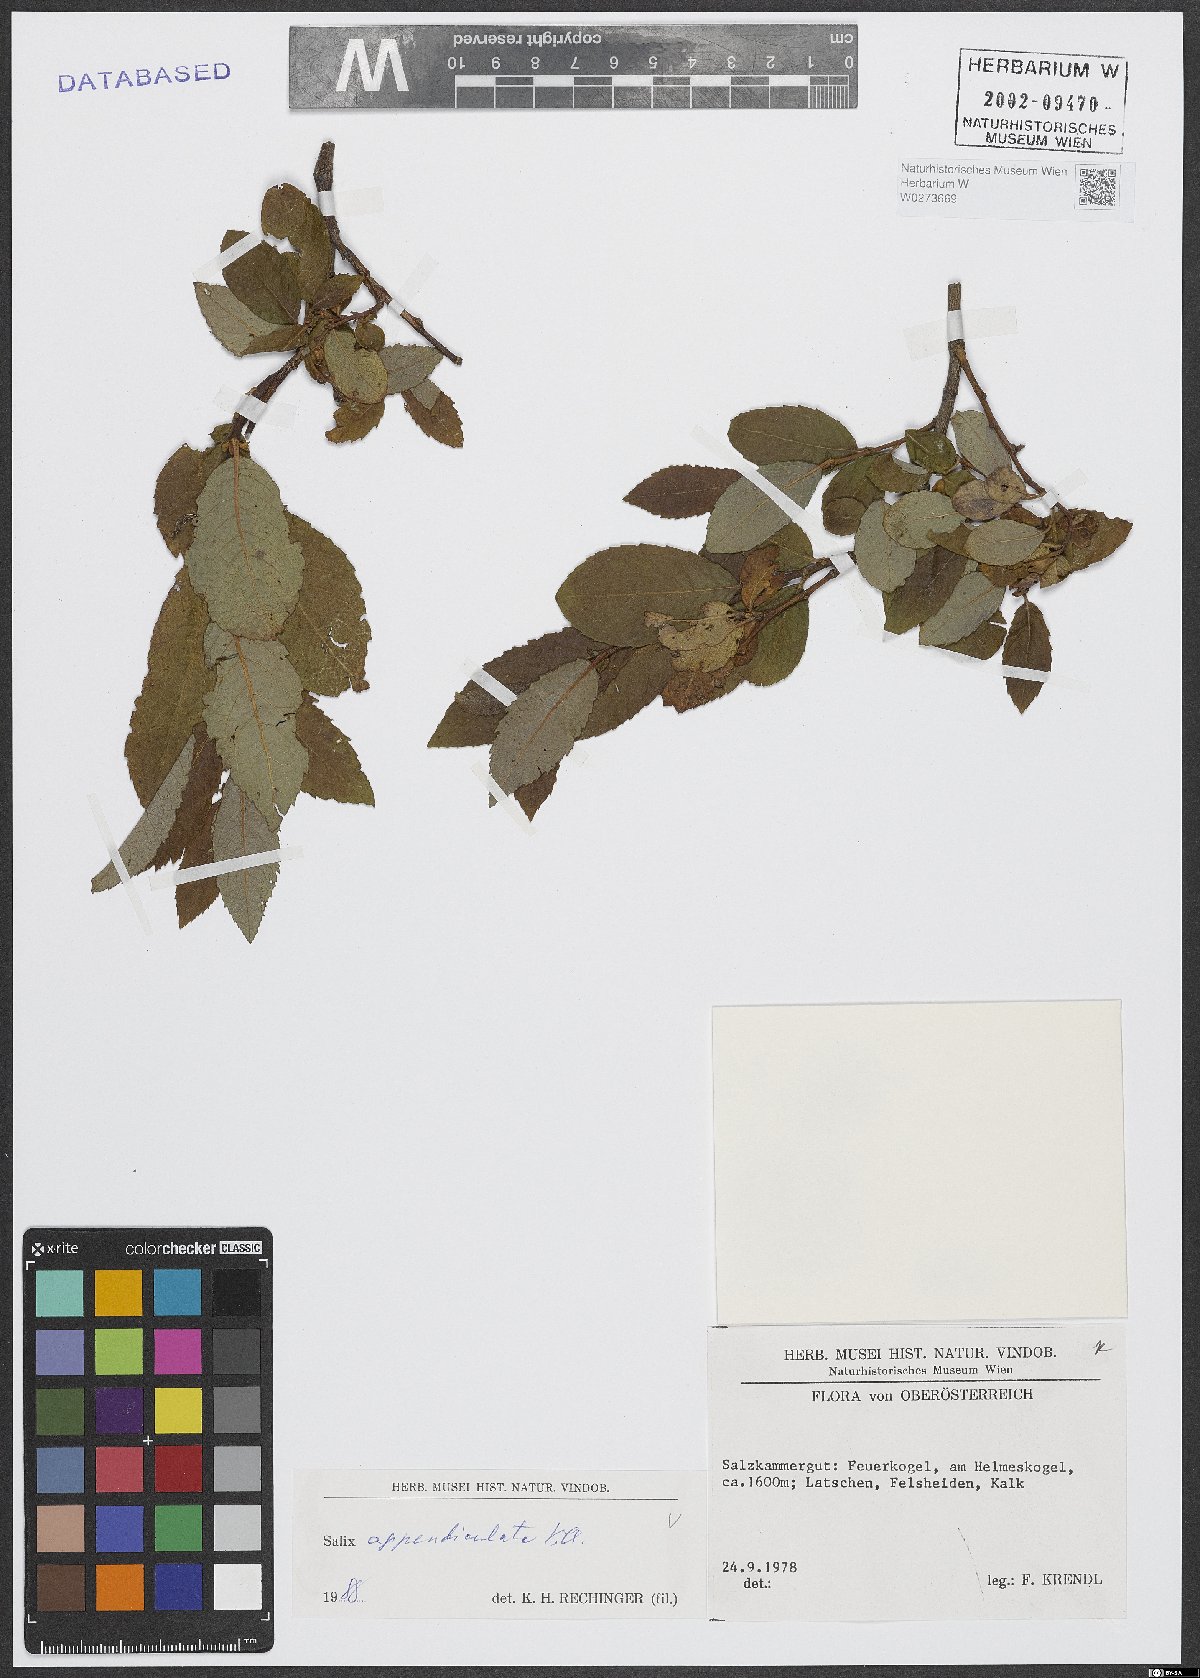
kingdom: Plantae
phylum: Tracheophyta
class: Magnoliopsida
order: Malpighiales
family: Salicaceae
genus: Salix
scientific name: Salix appendiculata
